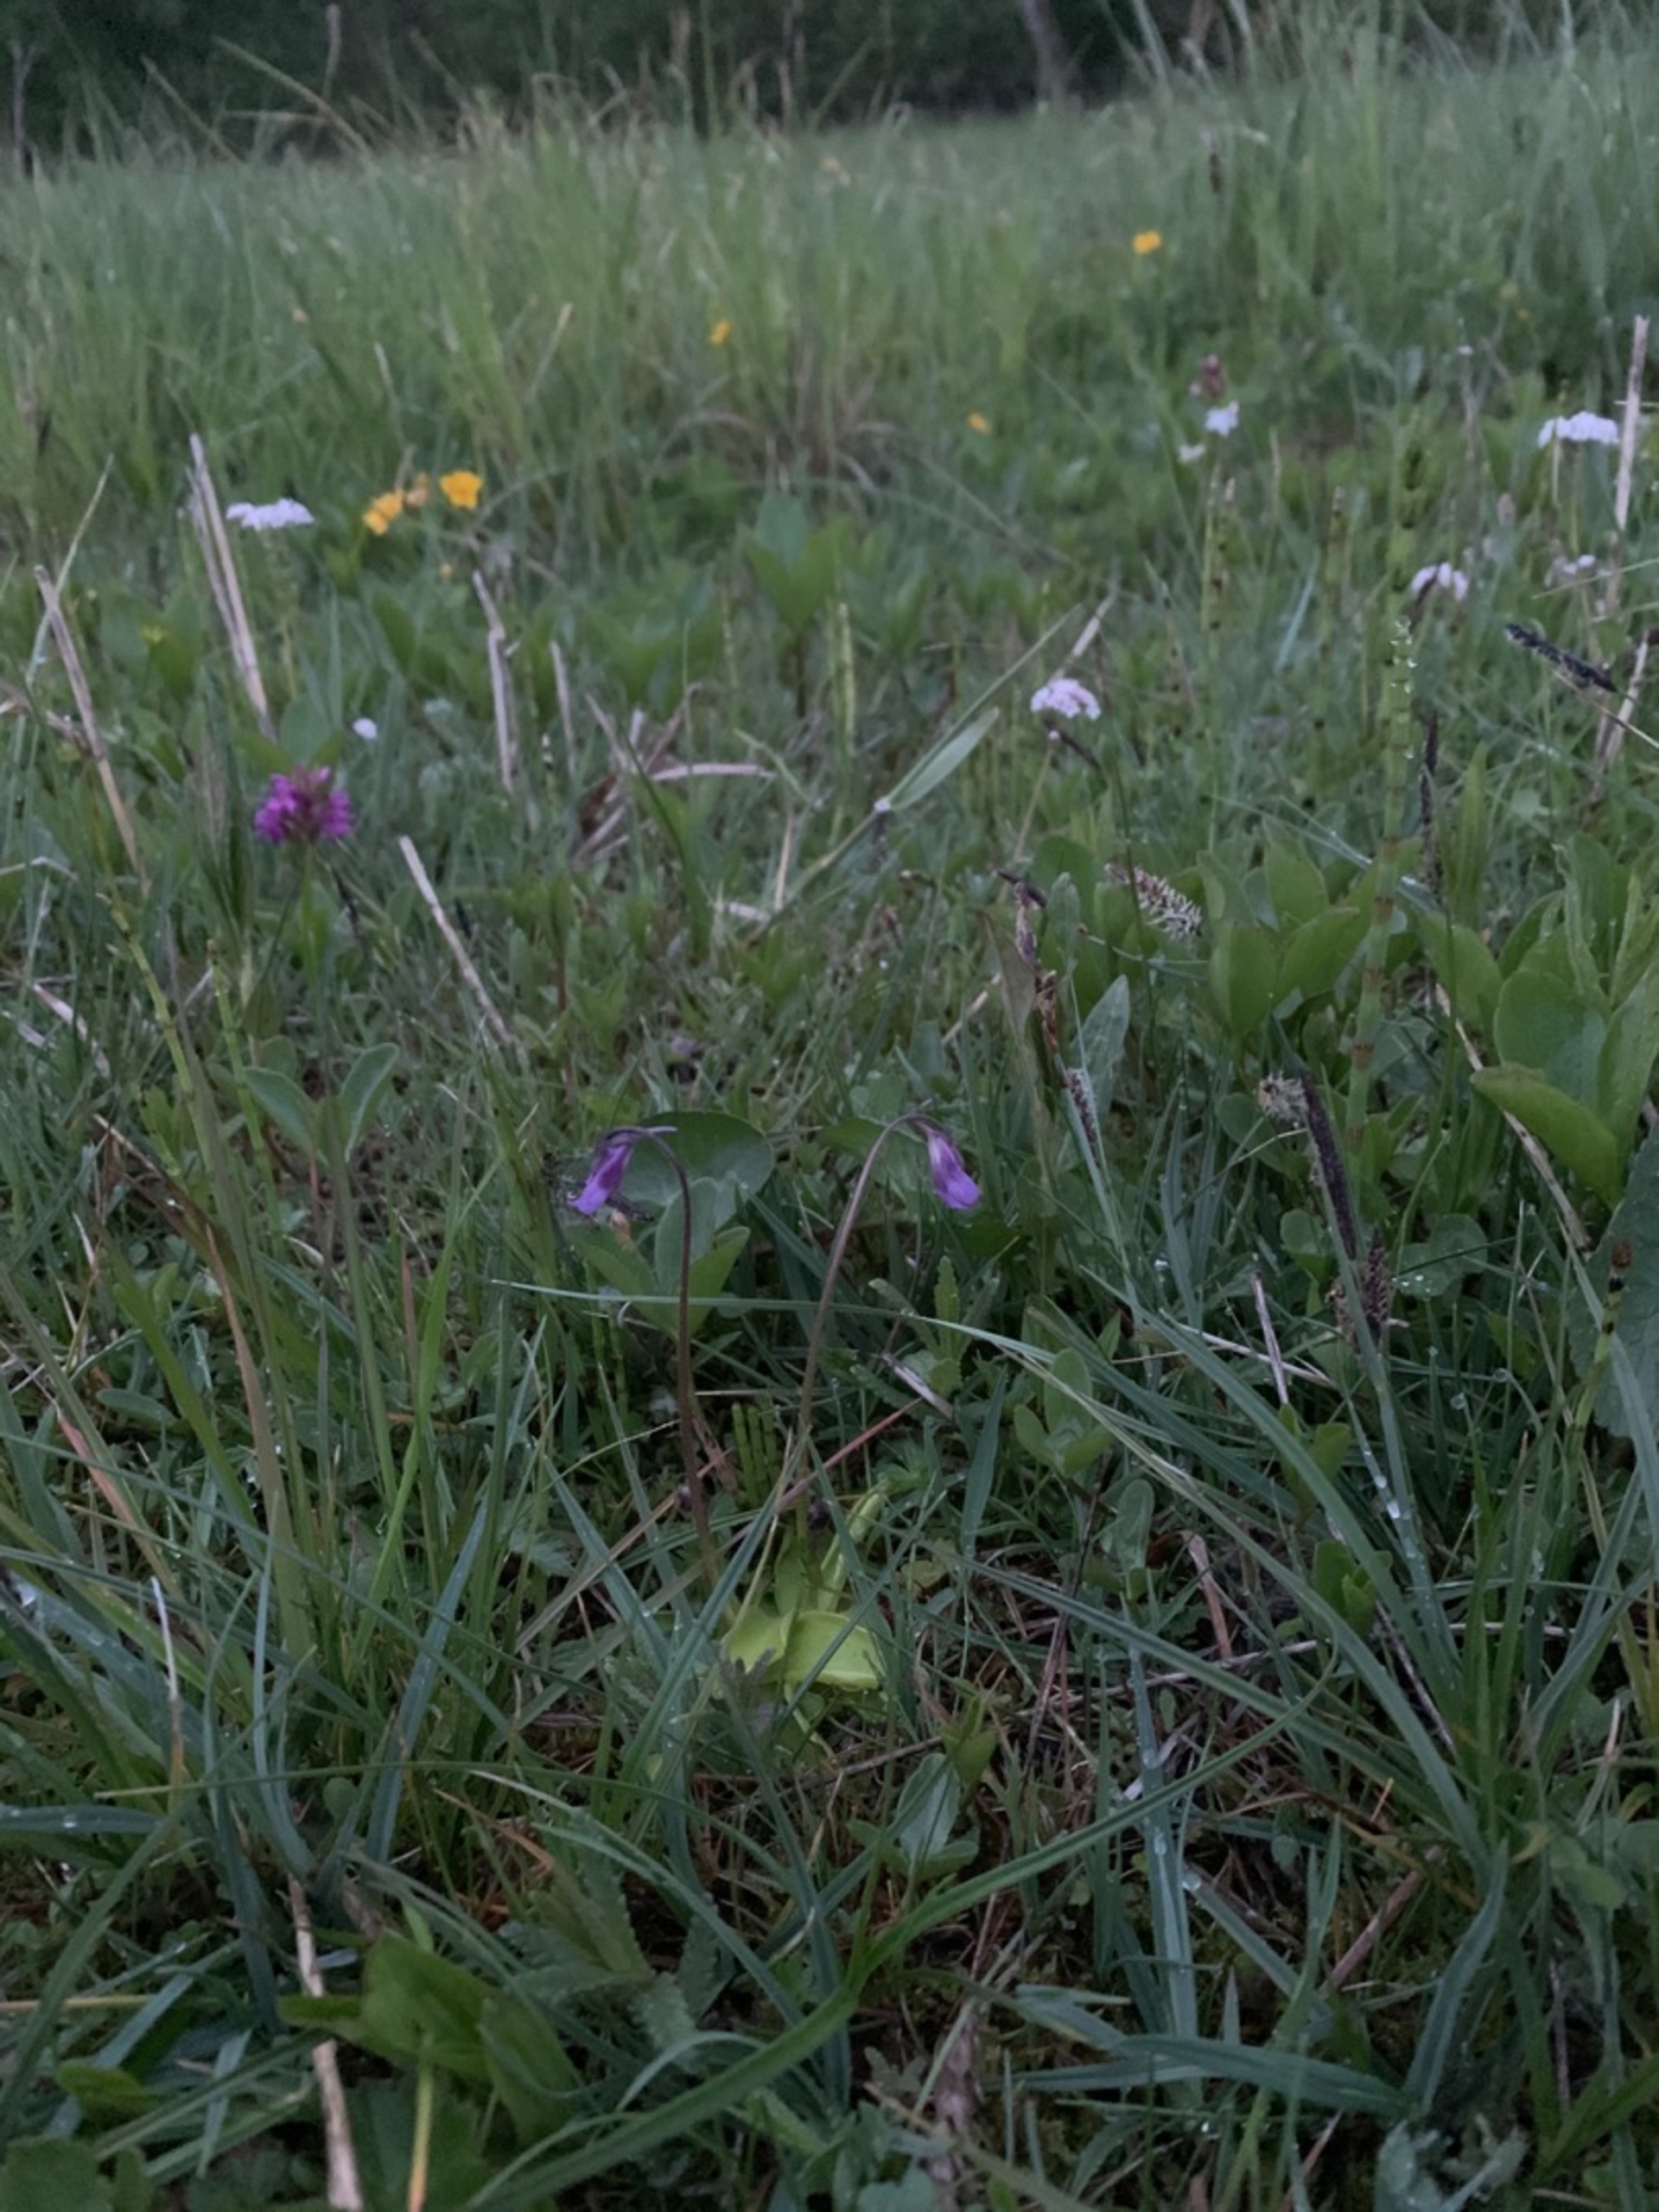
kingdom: Plantae
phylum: Tracheophyta
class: Magnoliopsida
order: Lamiales
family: Lentibulariaceae
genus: Pinguicula
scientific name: Pinguicula vulgaris
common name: Vibefedt
